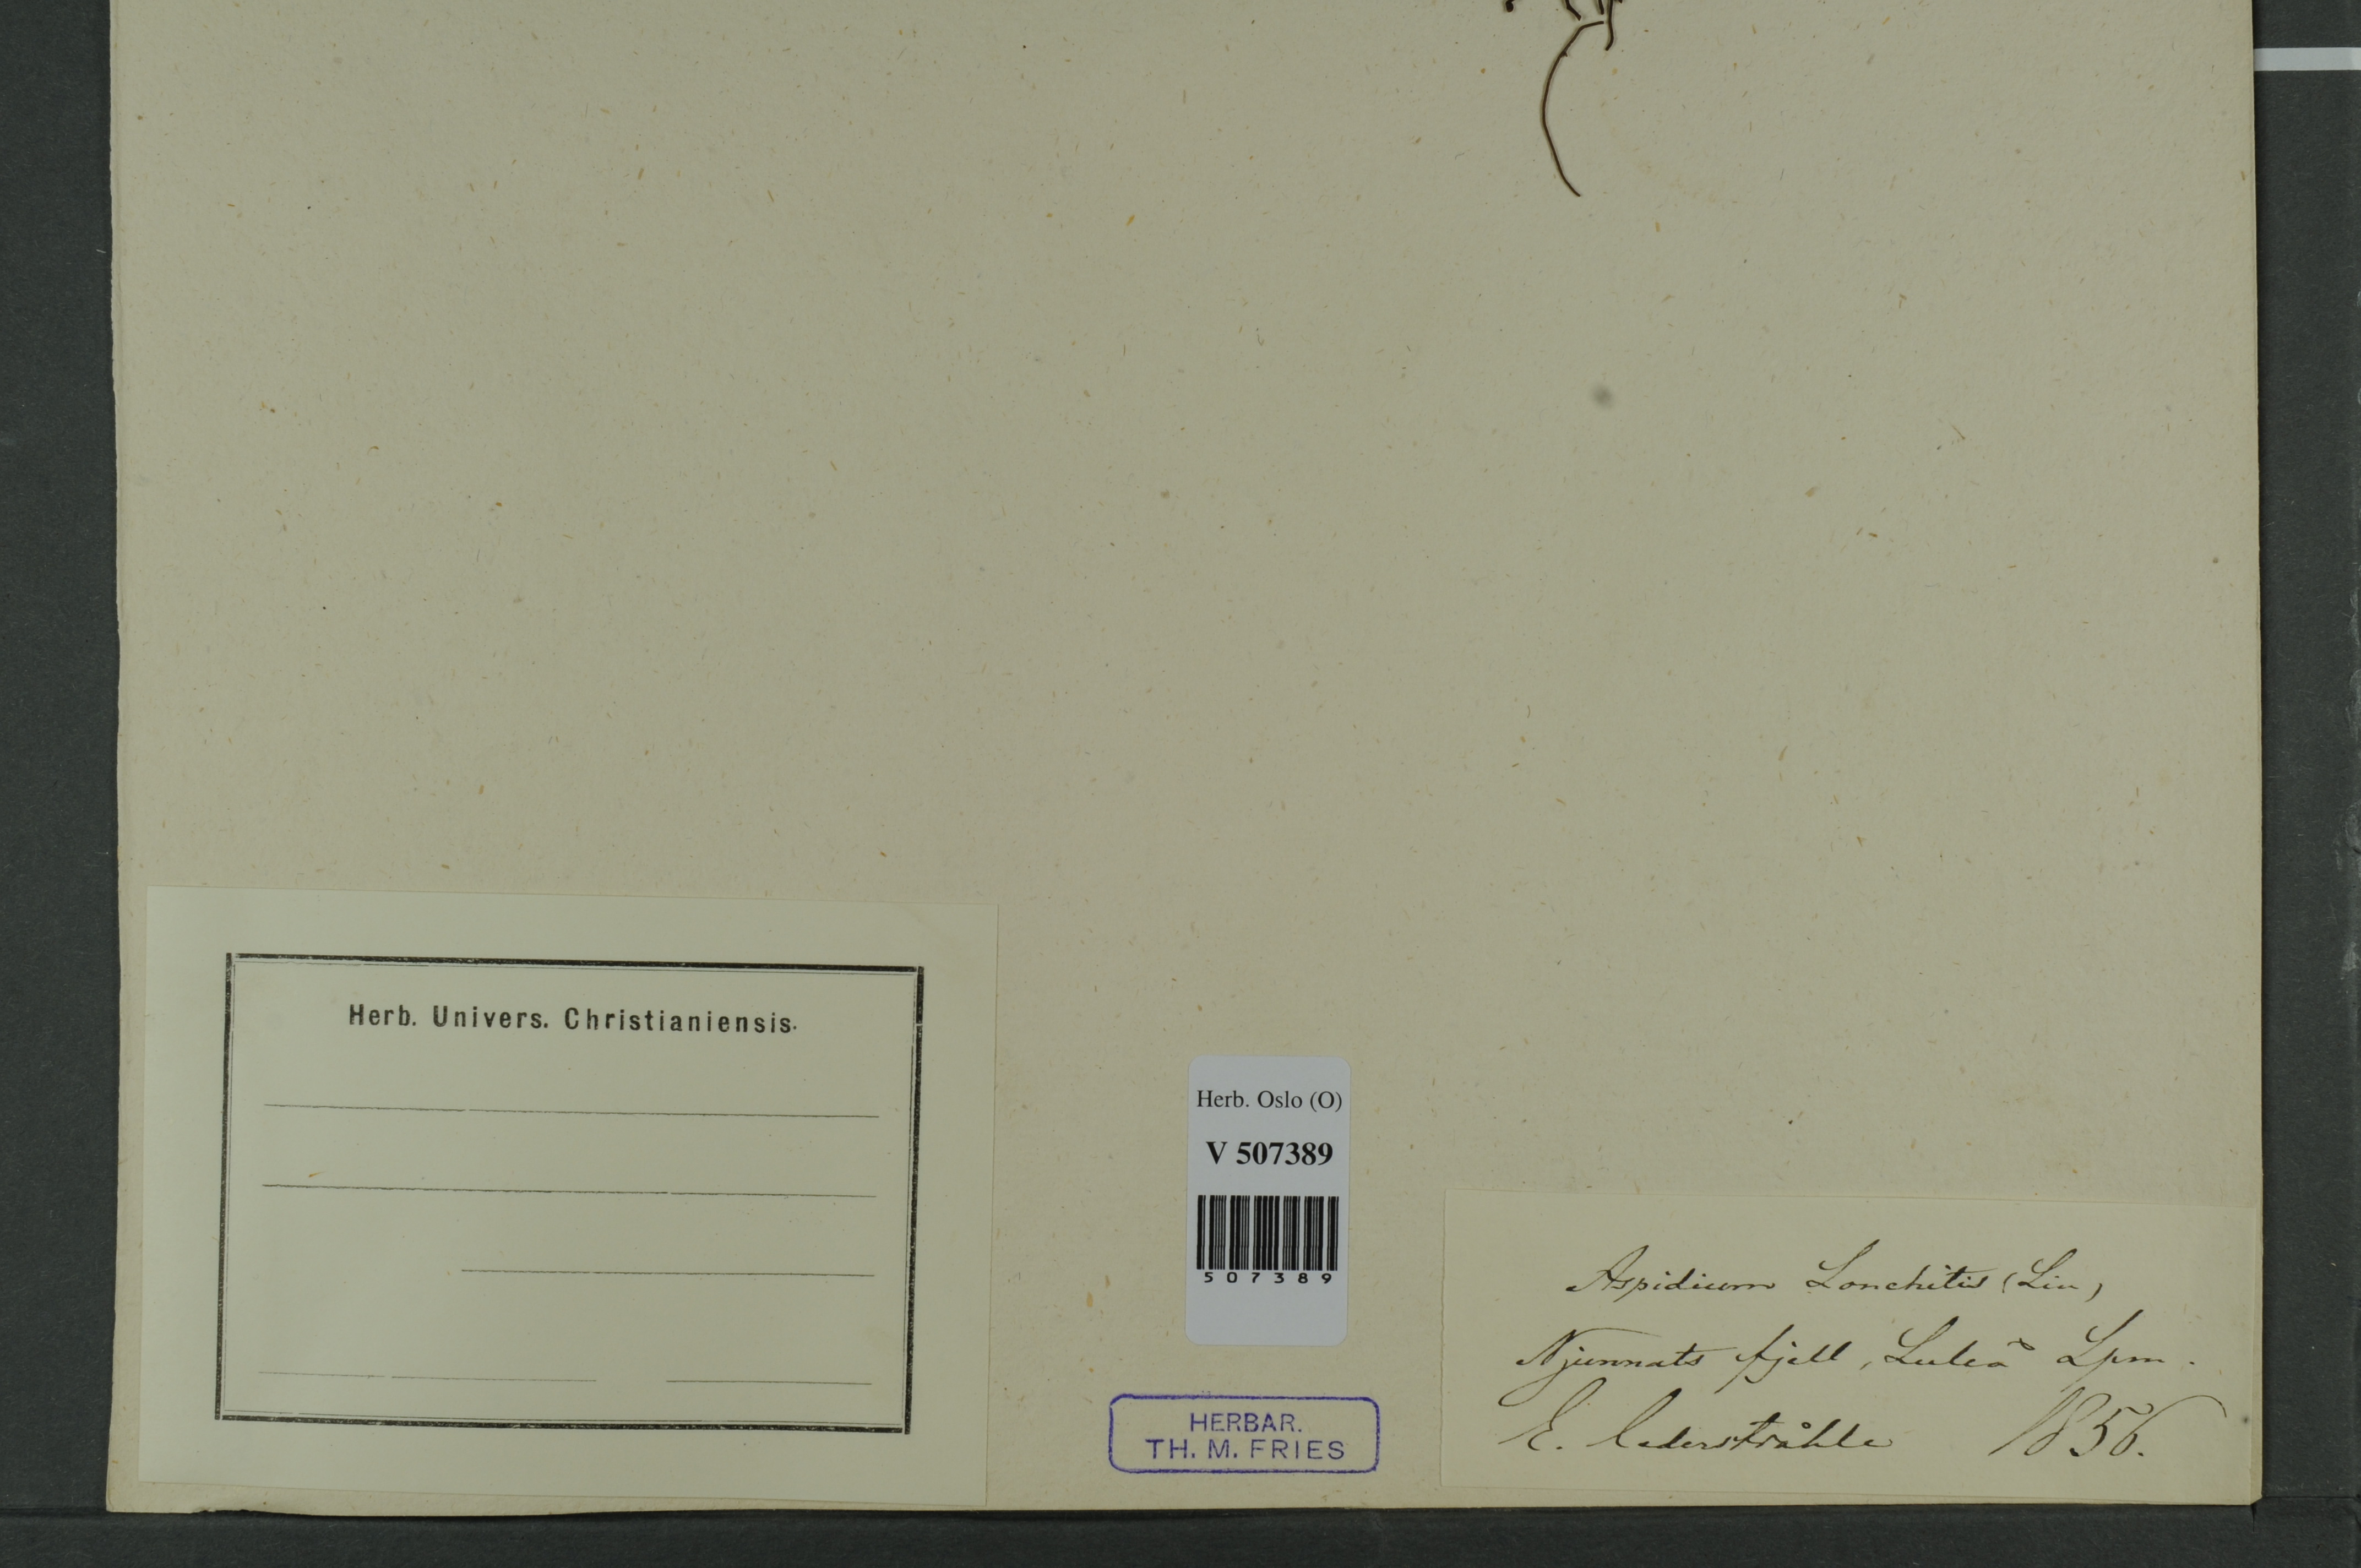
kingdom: Plantae
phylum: Tracheophyta
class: Polypodiopsida
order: Polypodiales
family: Dryopteridaceae
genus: Polystichum
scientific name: Polystichum lonchitis
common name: Holly fern
